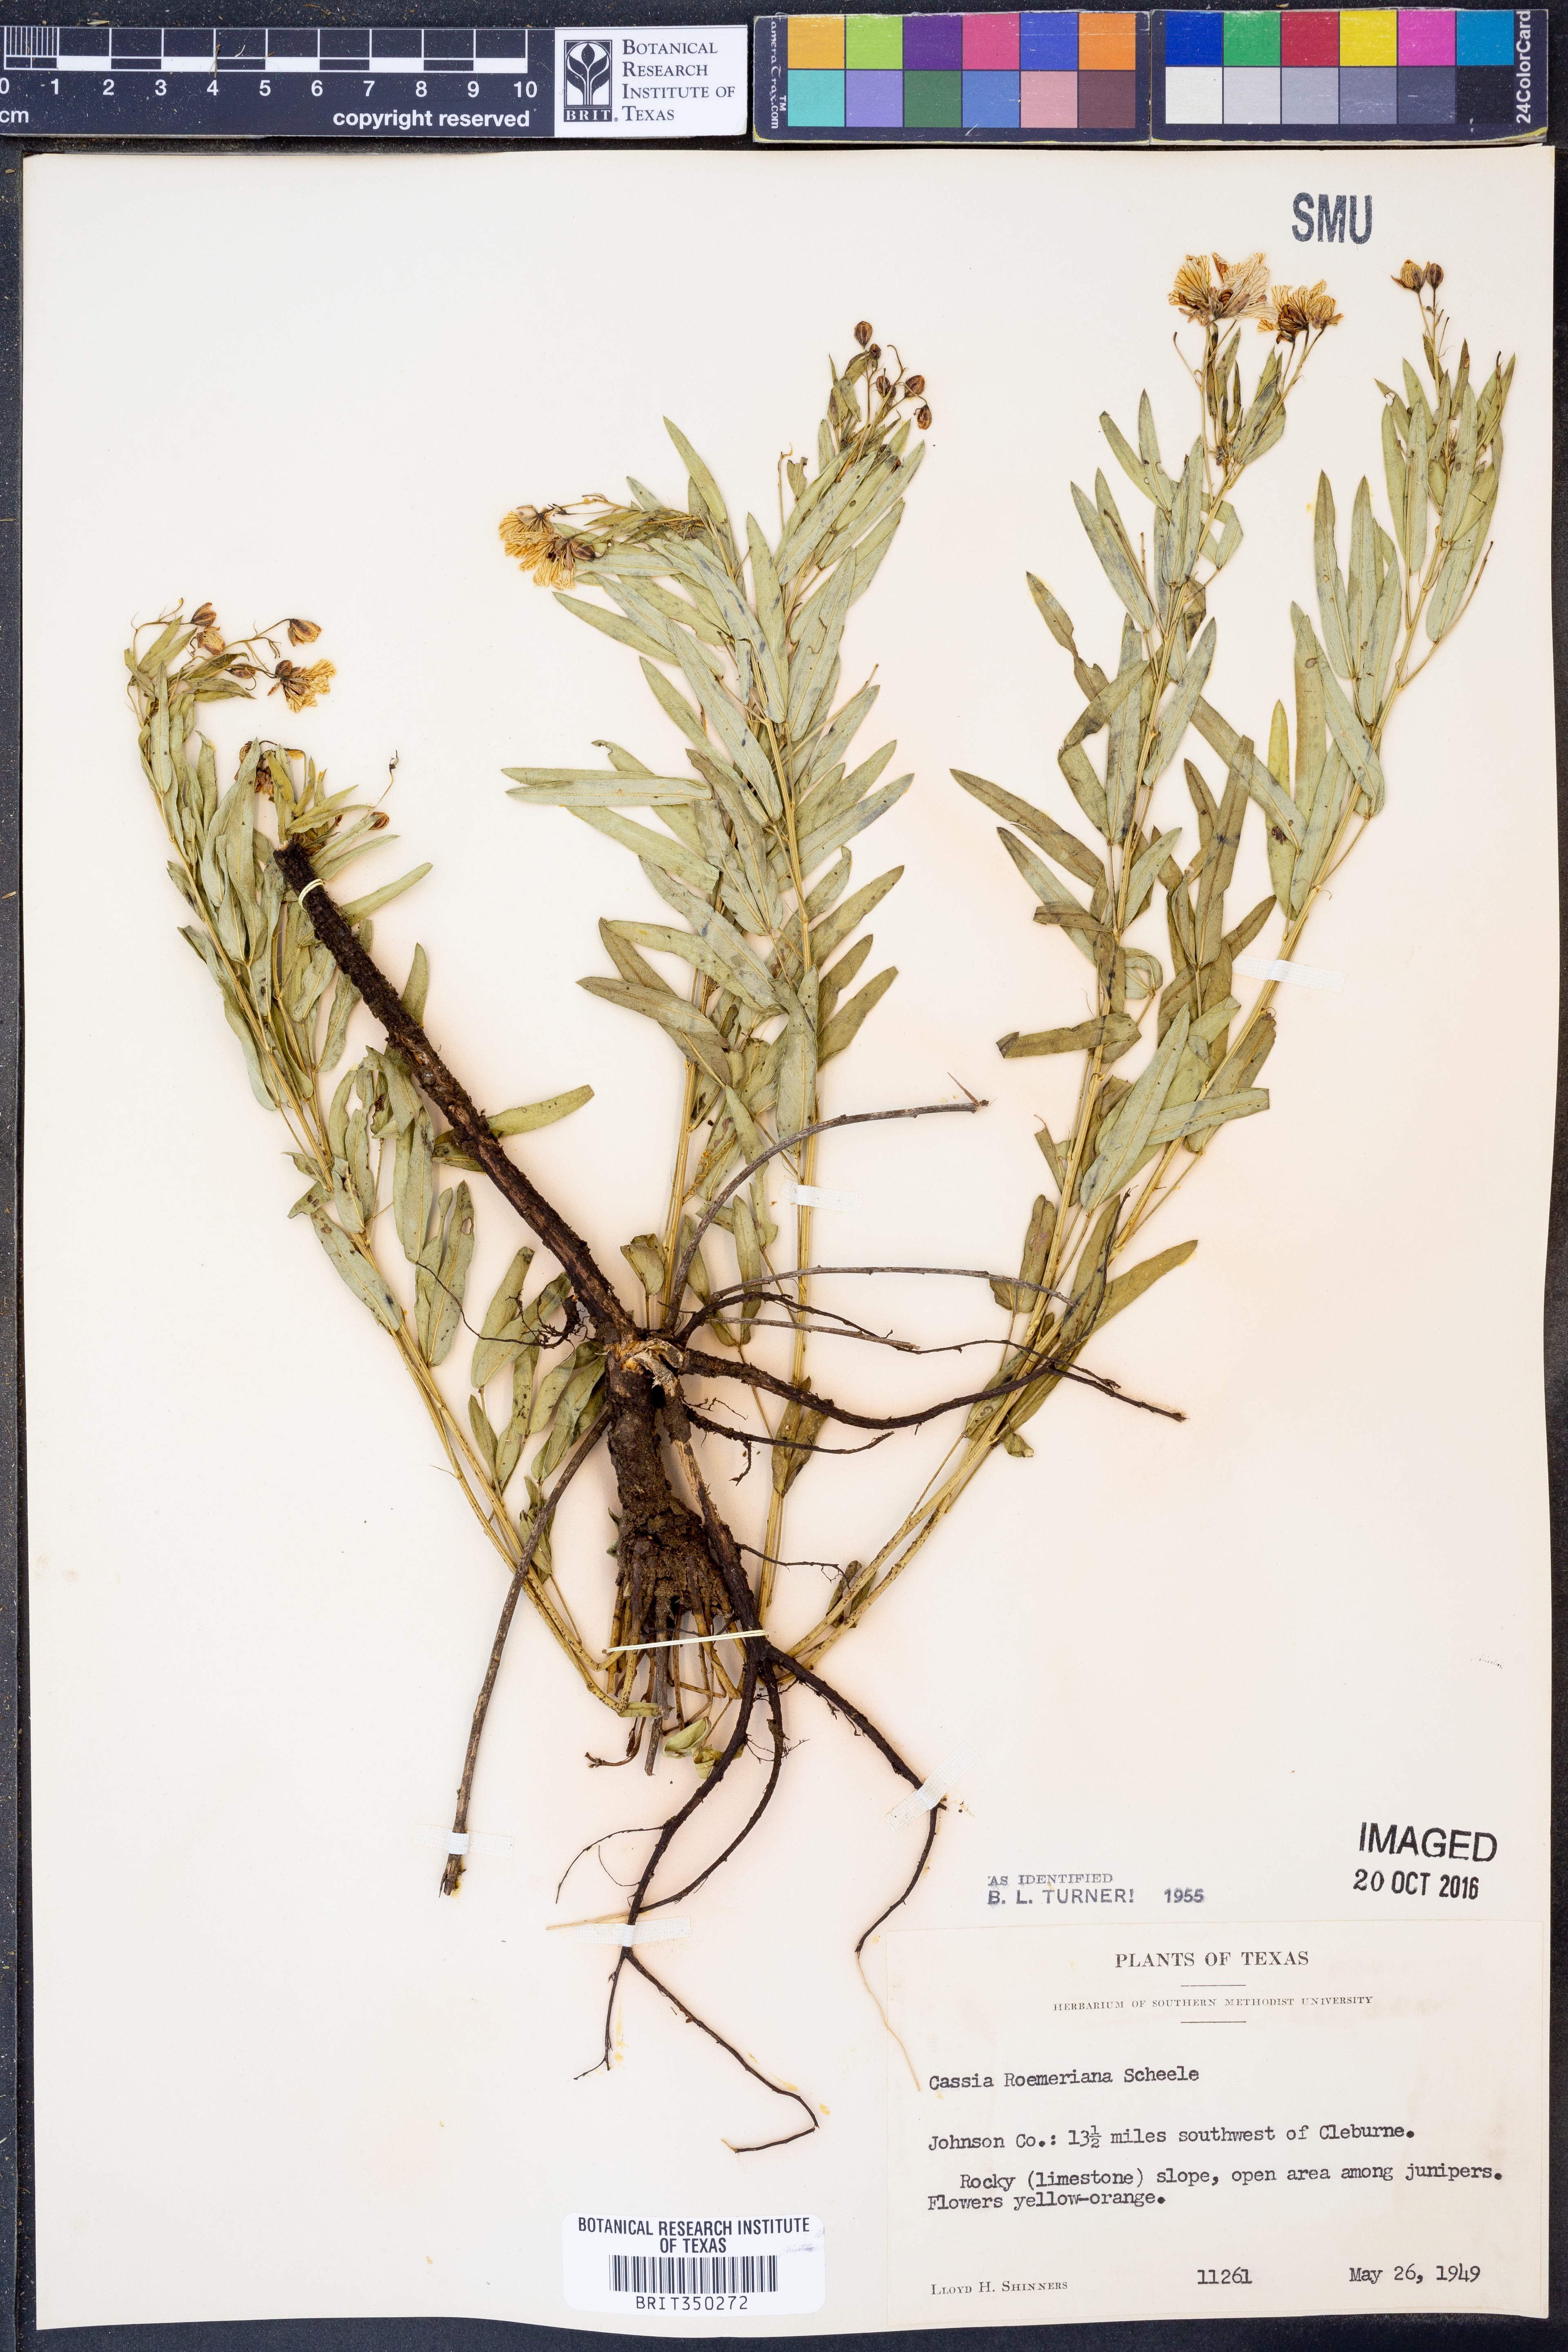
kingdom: Plantae
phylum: Tracheophyta
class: Magnoliopsida
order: Fabales
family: Fabaceae
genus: Senna
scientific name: Senna roemeriana
